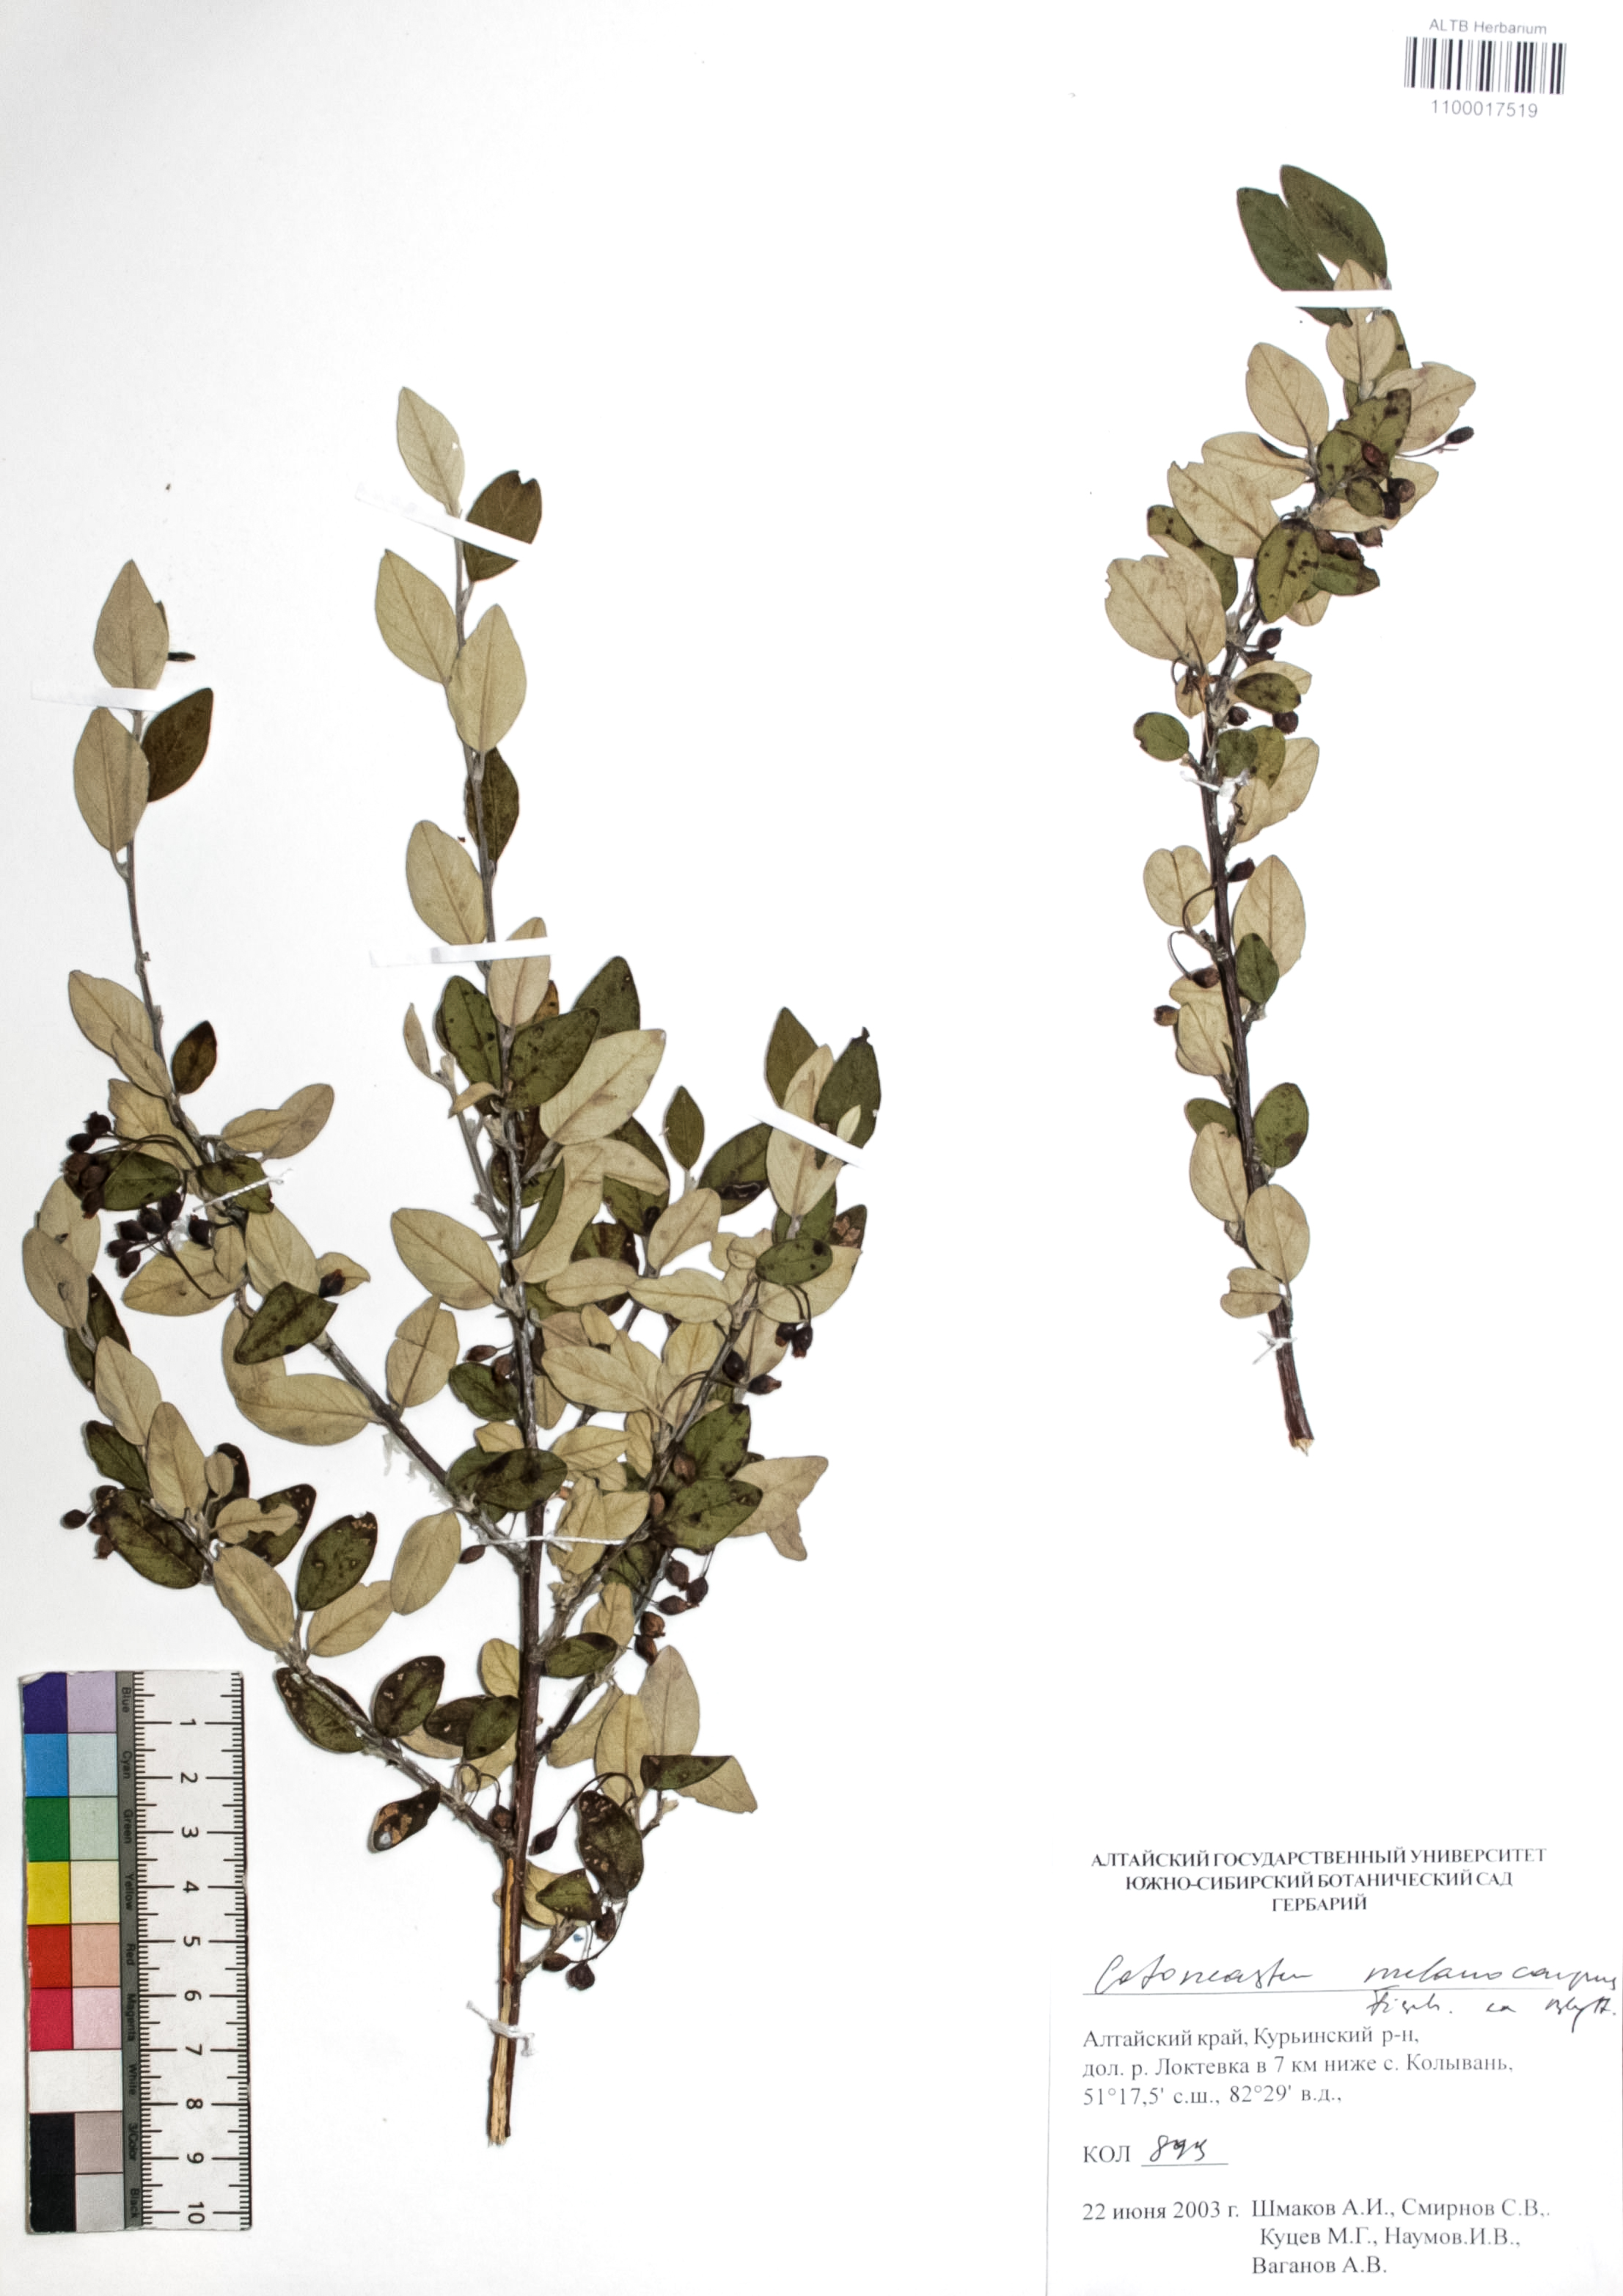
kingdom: Plantae
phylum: Tracheophyta
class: Magnoliopsida
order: Rosales
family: Rosaceae
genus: Cotoneaster
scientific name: Cotoneaster niger
